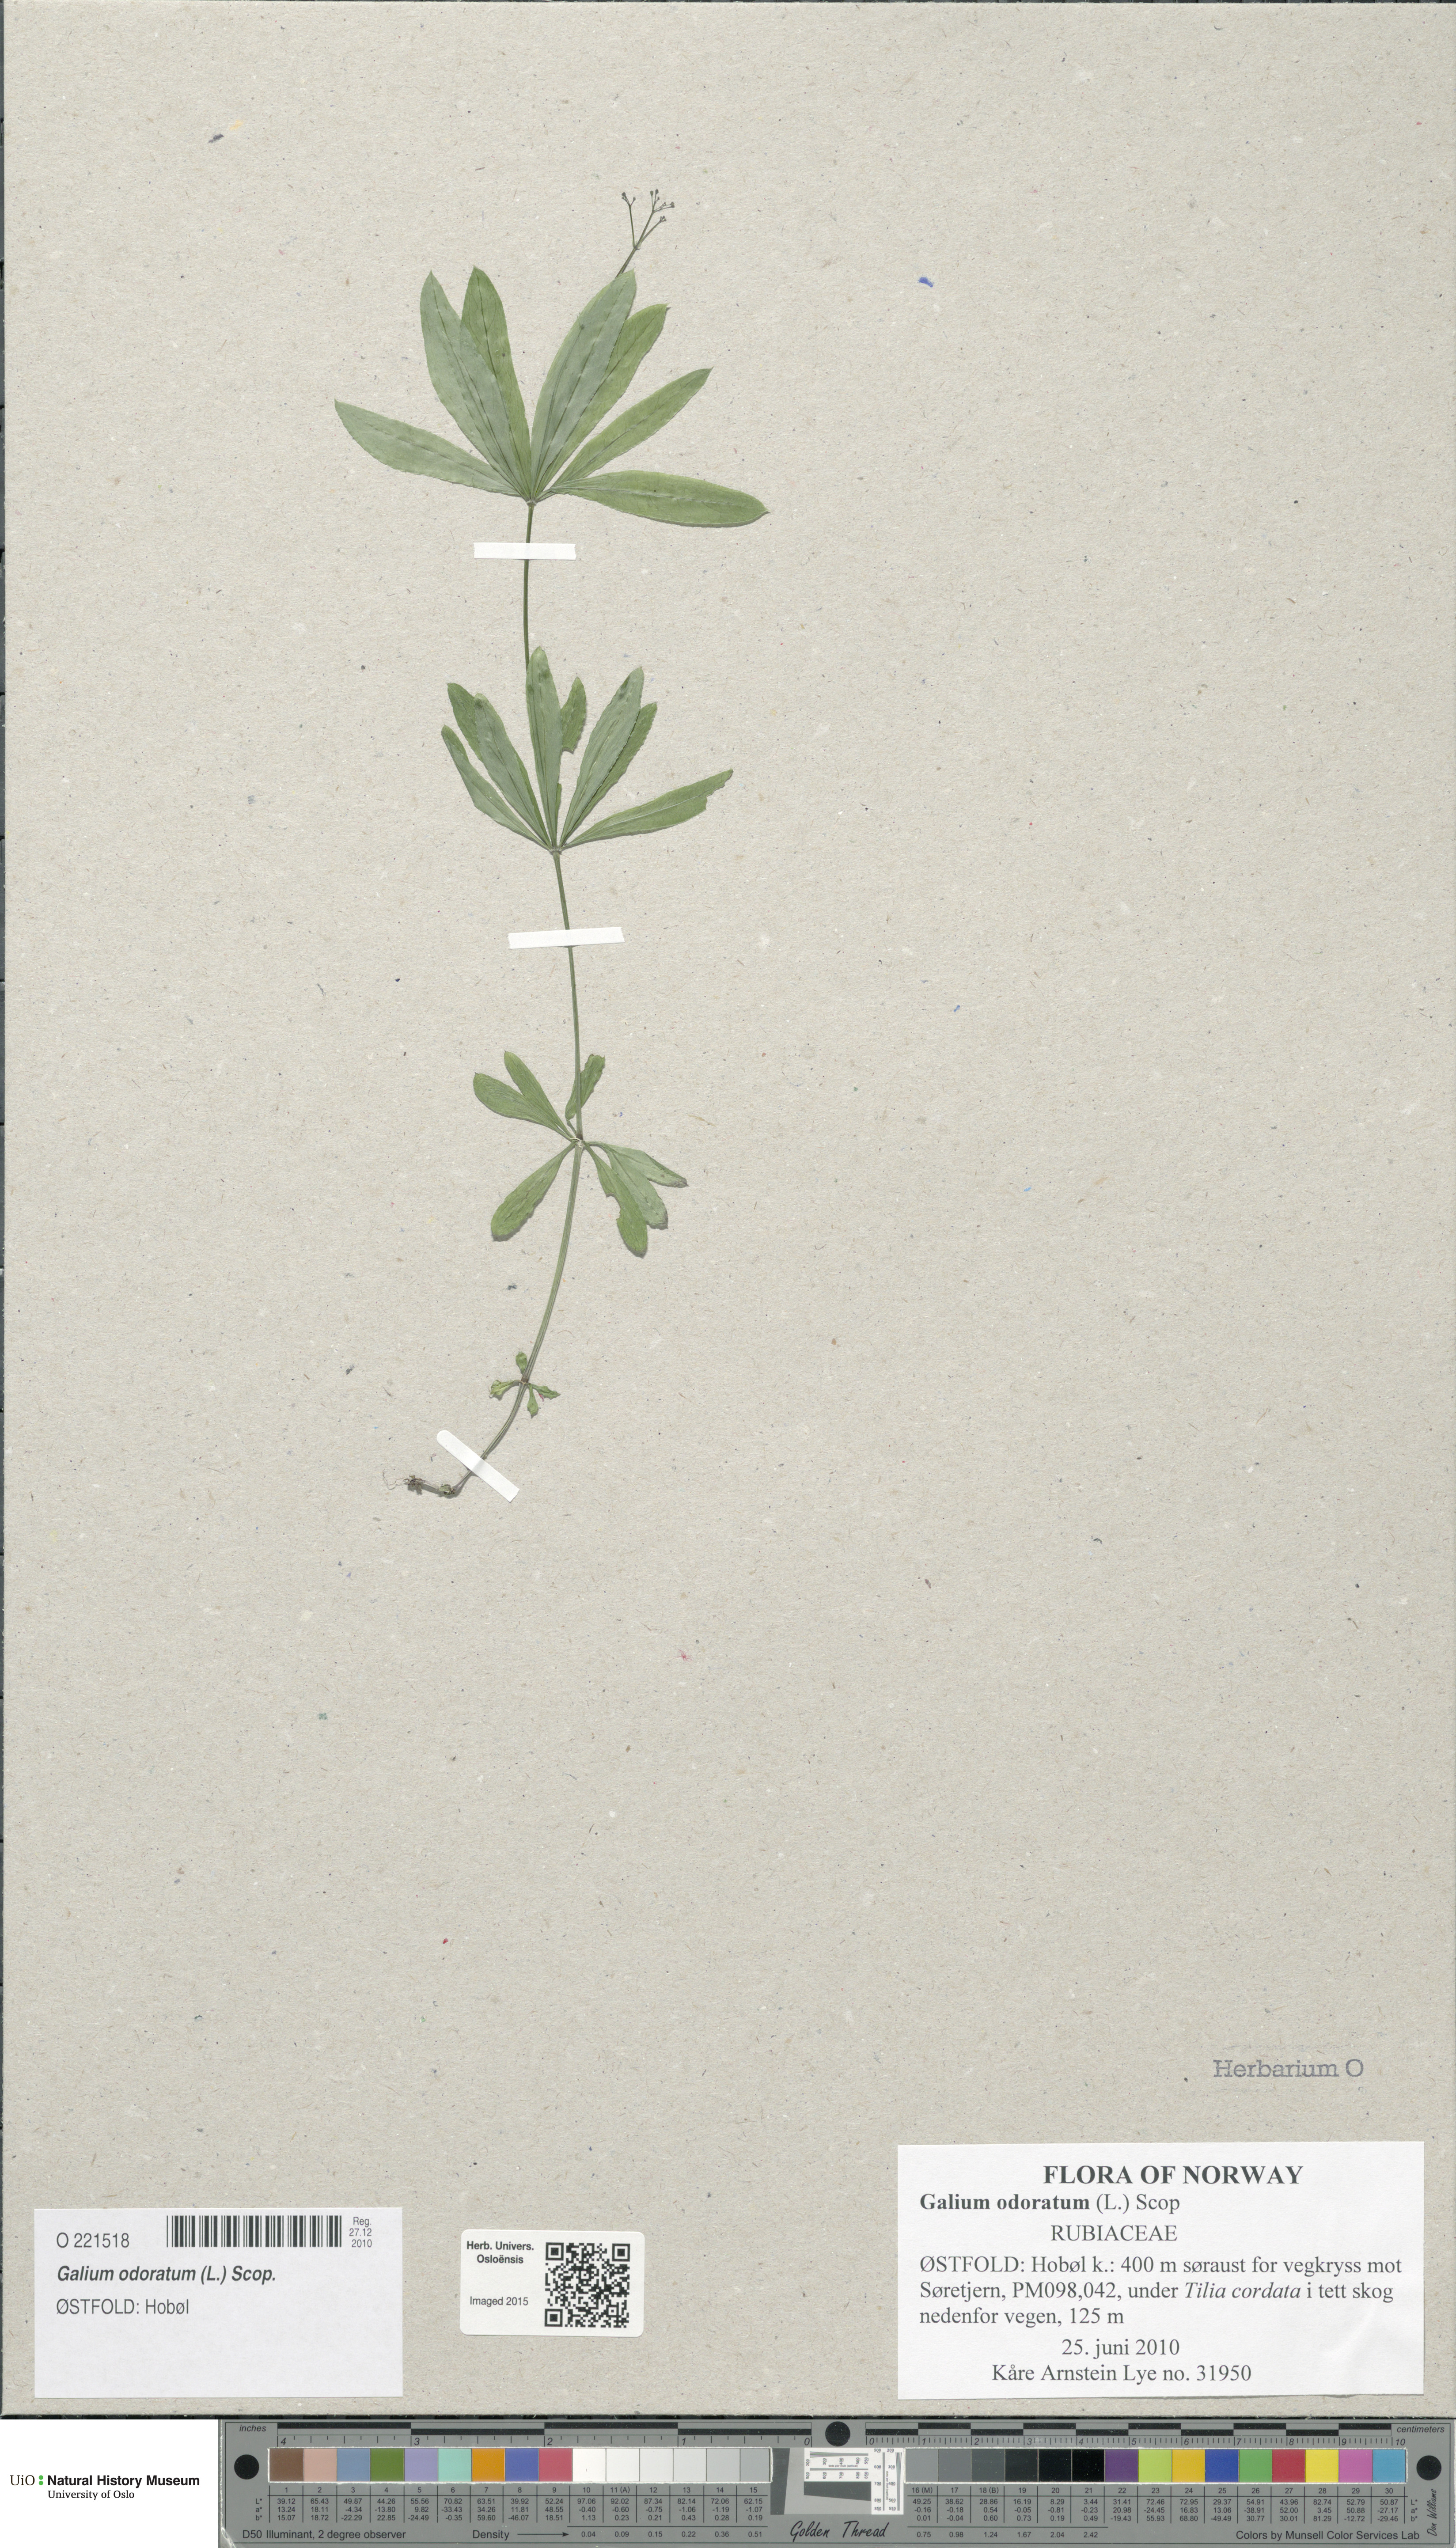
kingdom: Plantae
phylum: Tracheophyta
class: Magnoliopsida
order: Gentianales
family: Rubiaceae
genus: Galium
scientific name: Galium odoratum
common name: Sweet woodruff
